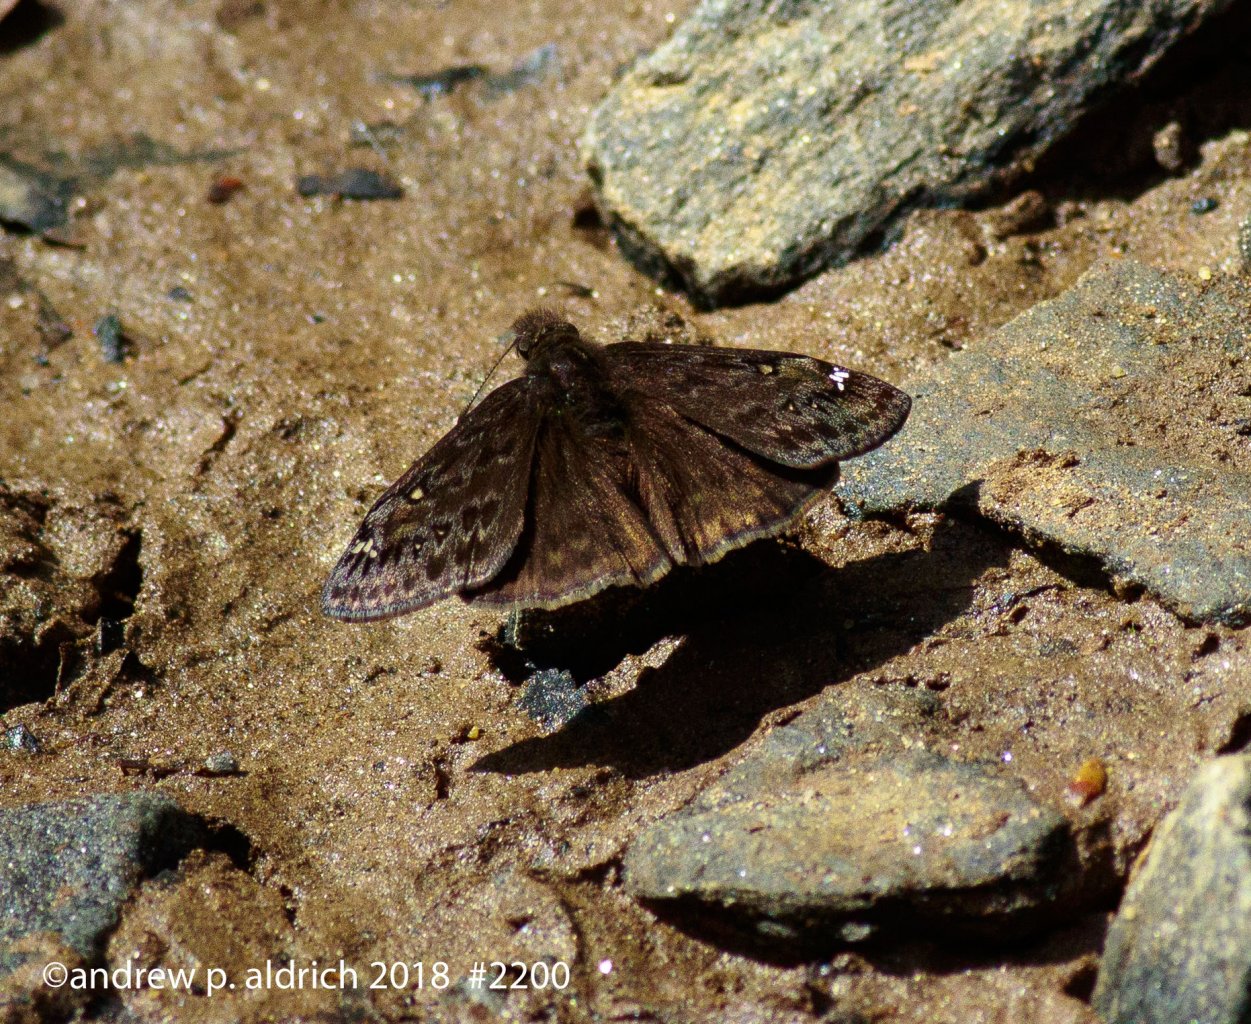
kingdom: Animalia
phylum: Arthropoda
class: Insecta
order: Lepidoptera
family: Hesperiidae
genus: Gesta
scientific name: Gesta
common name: Juvenal's Duskywing
